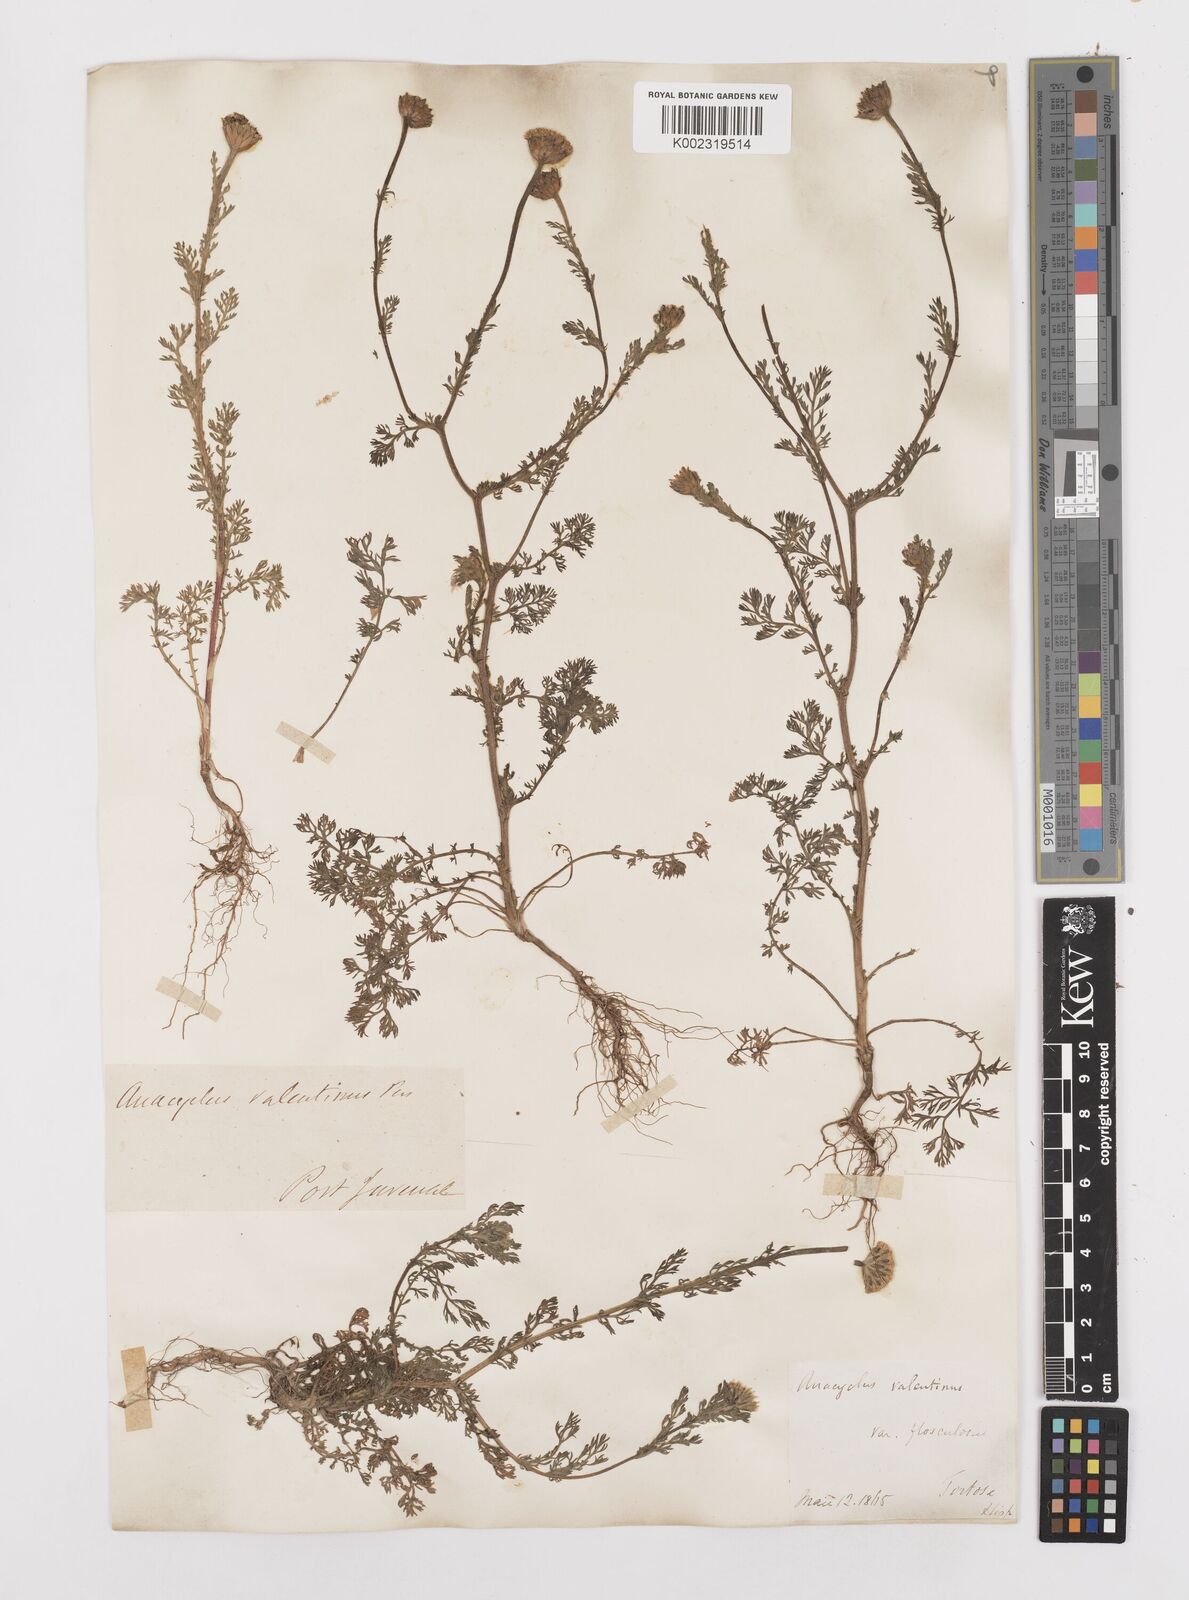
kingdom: Plantae
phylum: Tracheophyta
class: Magnoliopsida
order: Asterales
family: Asteraceae
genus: Anacyclus
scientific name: Anacyclus
